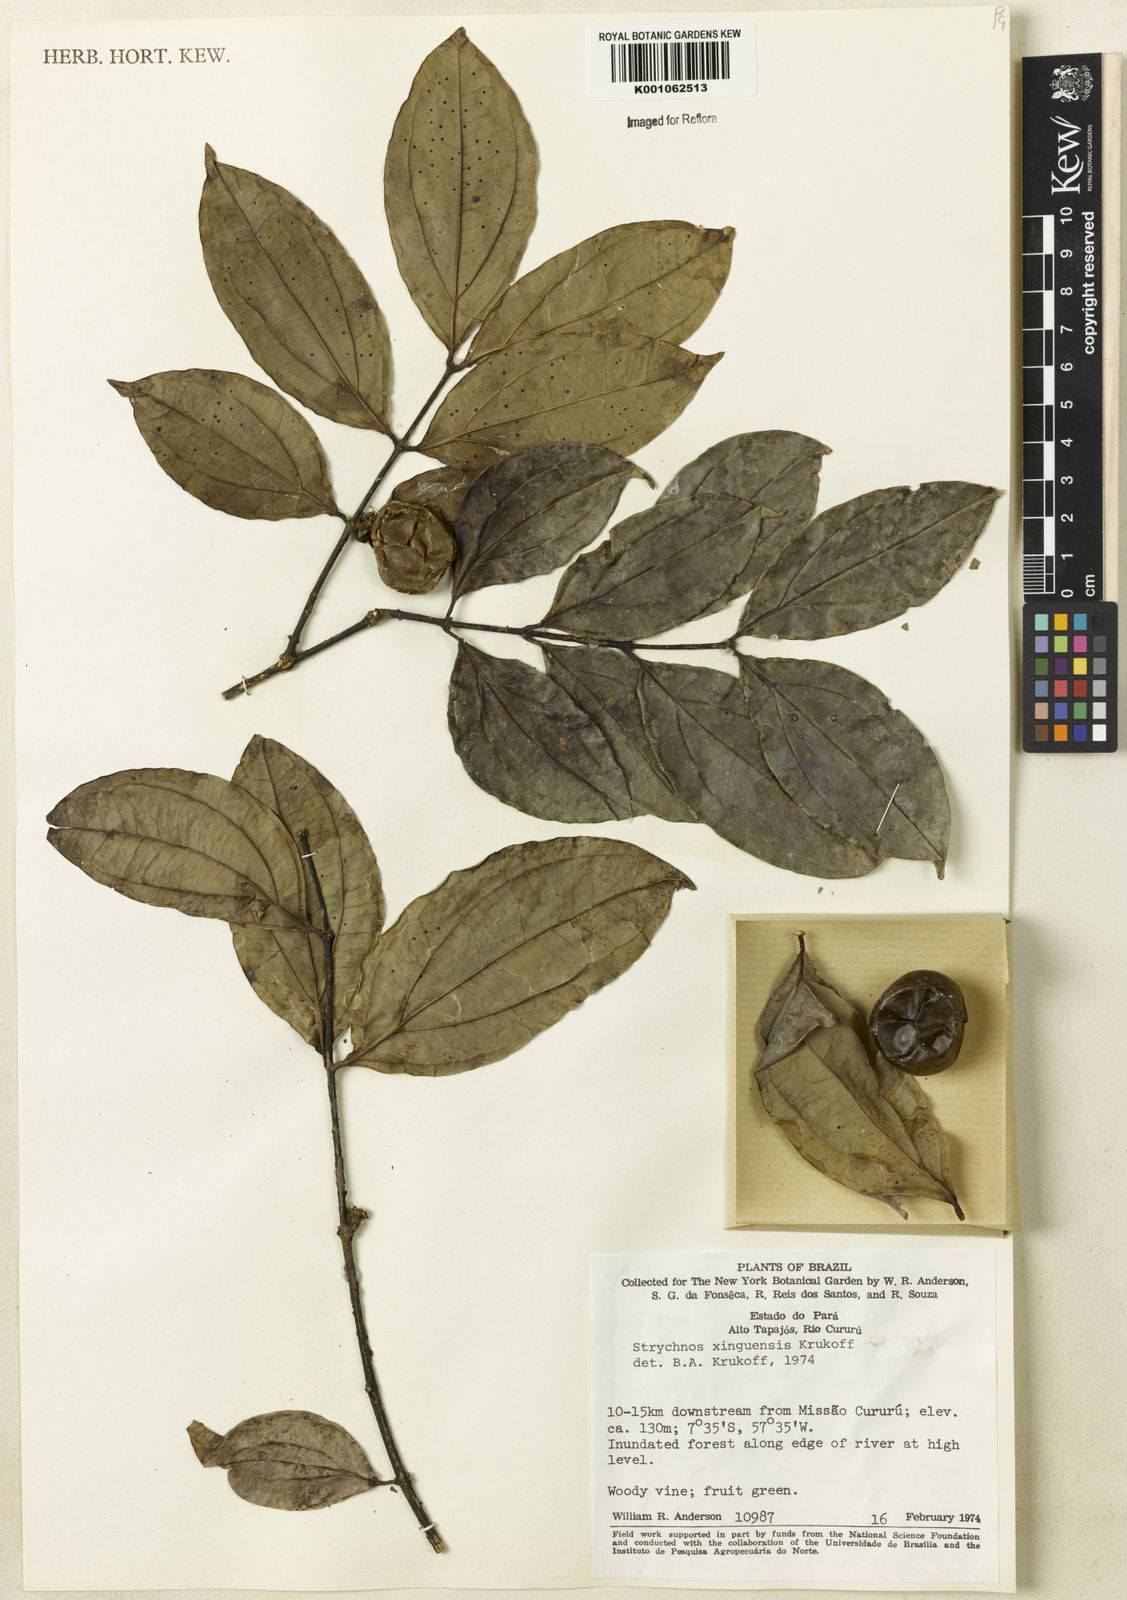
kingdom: Plantae
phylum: Tracheophyta
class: Magnoliopsida
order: Gentianales
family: Loganiaceae
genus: Strychnos
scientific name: Strychnos xinguensis
